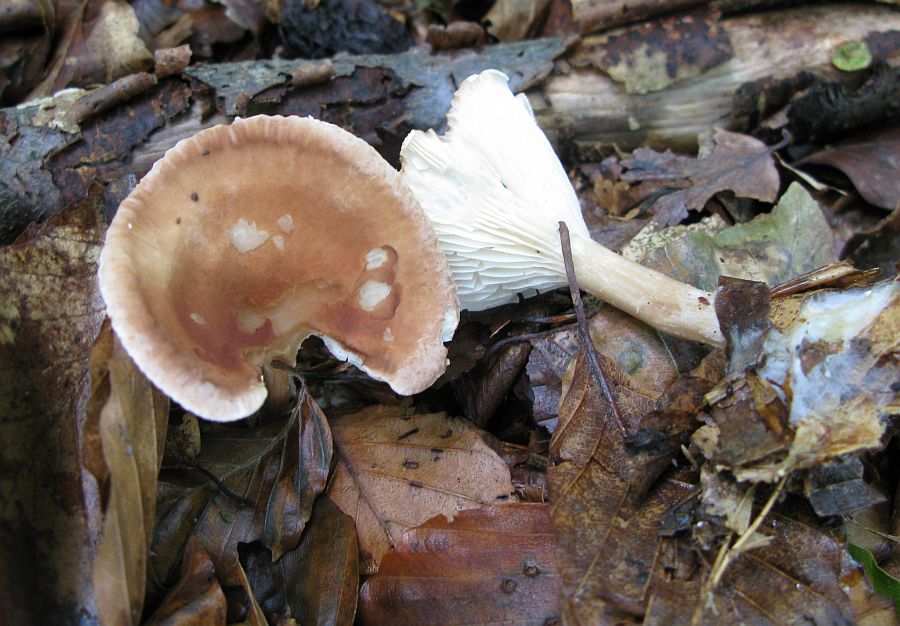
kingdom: Fungi
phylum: Basidiomycota
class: Agaricomycetes
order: Agaricales
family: Tricholomataceae
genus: Infundibulicybe
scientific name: Infundibulicybe gibba
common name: almindelig tragthat
